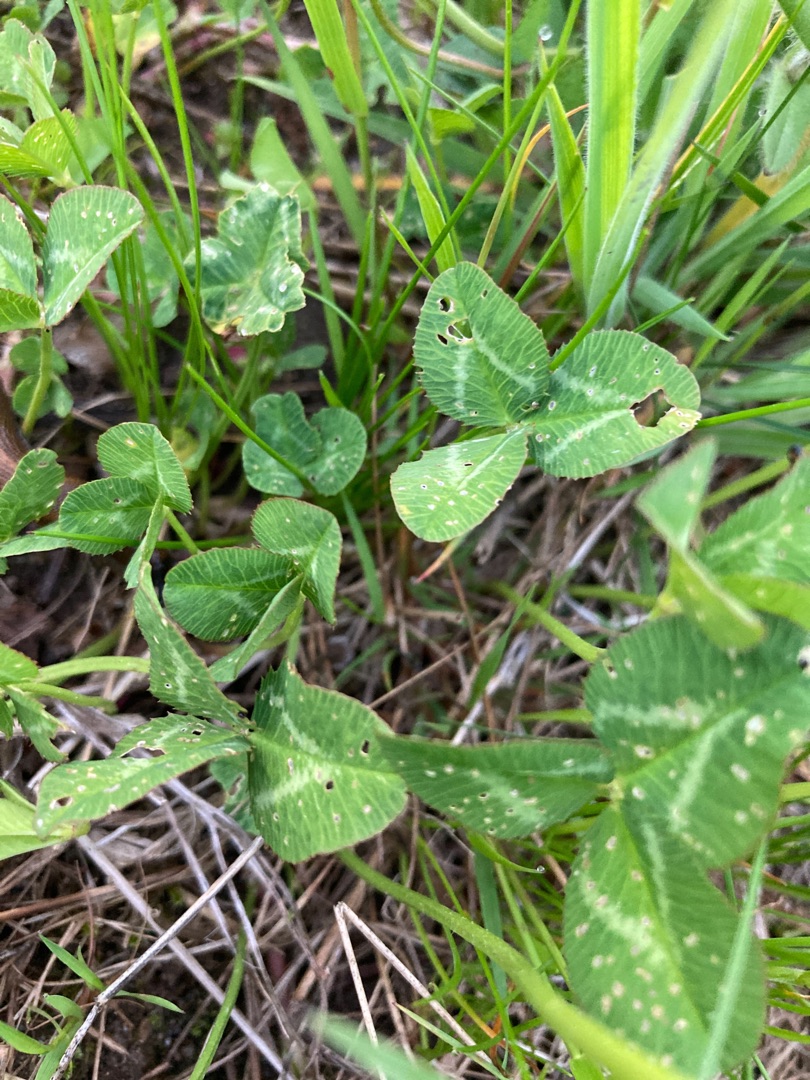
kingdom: Plantae
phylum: Tracheophyta
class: Magnoliopsida
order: Fabales
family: Fabaceae
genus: Trifolium
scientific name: Trifolium repens
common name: Hvid-kløver
